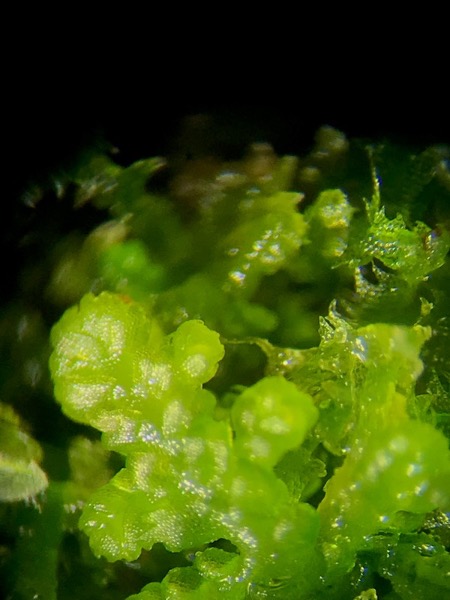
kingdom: Plantae
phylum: Marchantiophyta
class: Jungermanniopsida
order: Jungermanniales
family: Lepidoziaceae
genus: Lepidozia
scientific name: Lepidozia reptans
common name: Krybende fingermos
